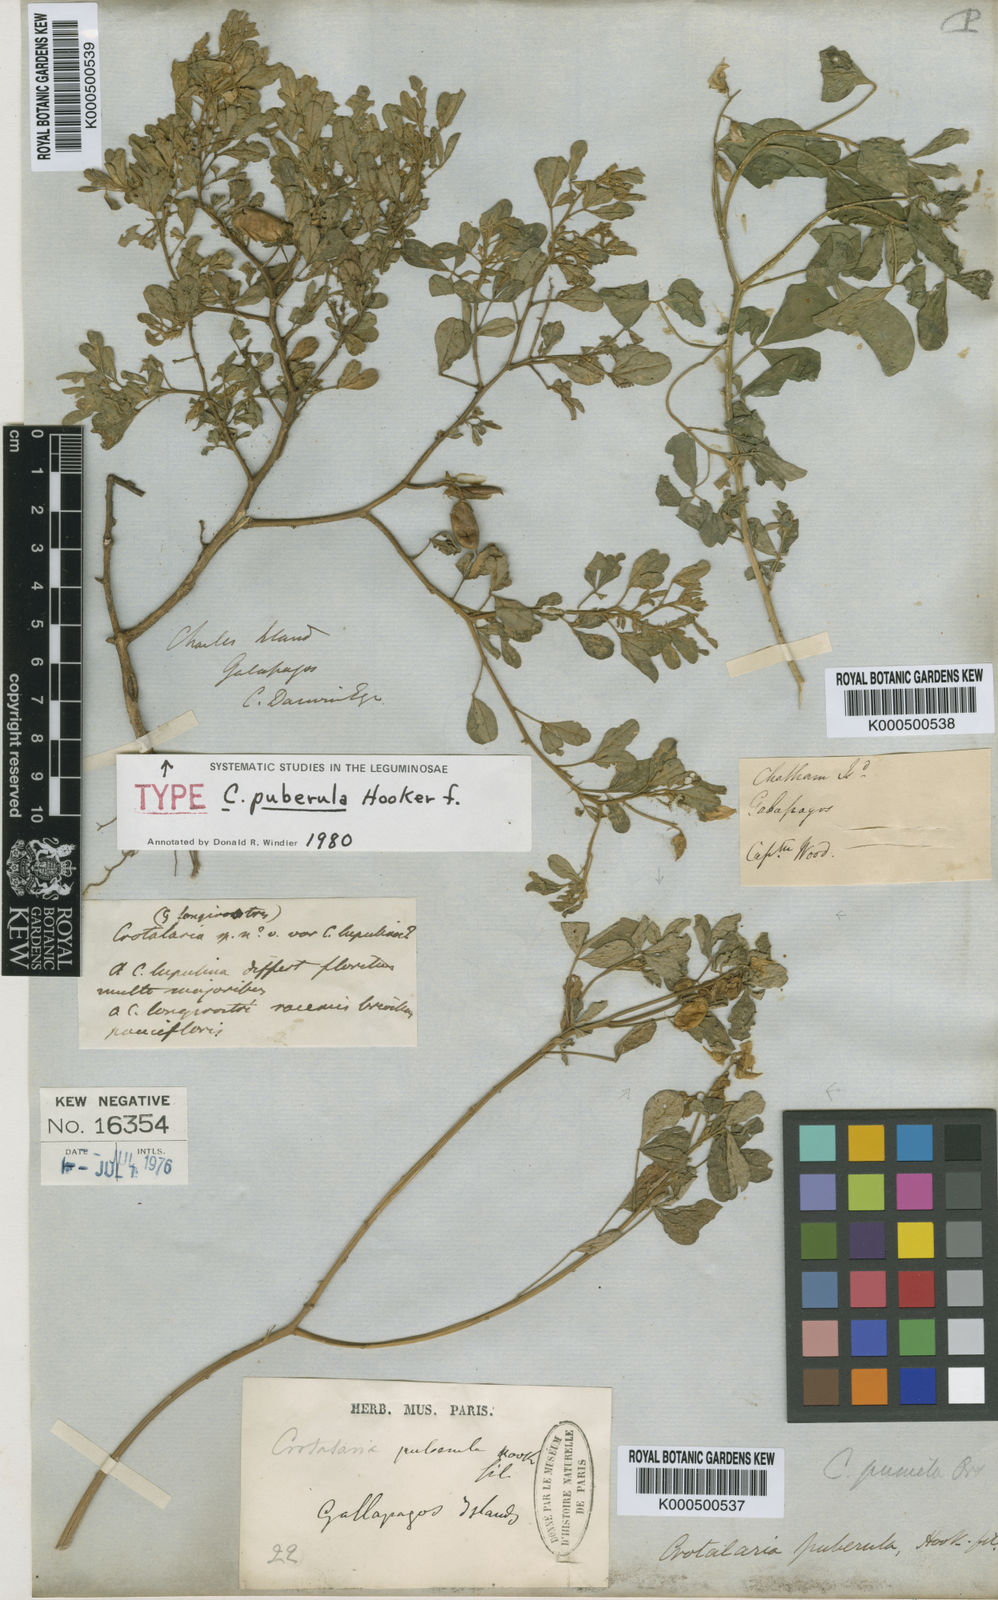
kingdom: Plantae
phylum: Tracheophyta
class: Magnoliopsida
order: Fabales
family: Fabaceae
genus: Crotalaria
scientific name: Crotalaria pumila
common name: Low rattlebox
